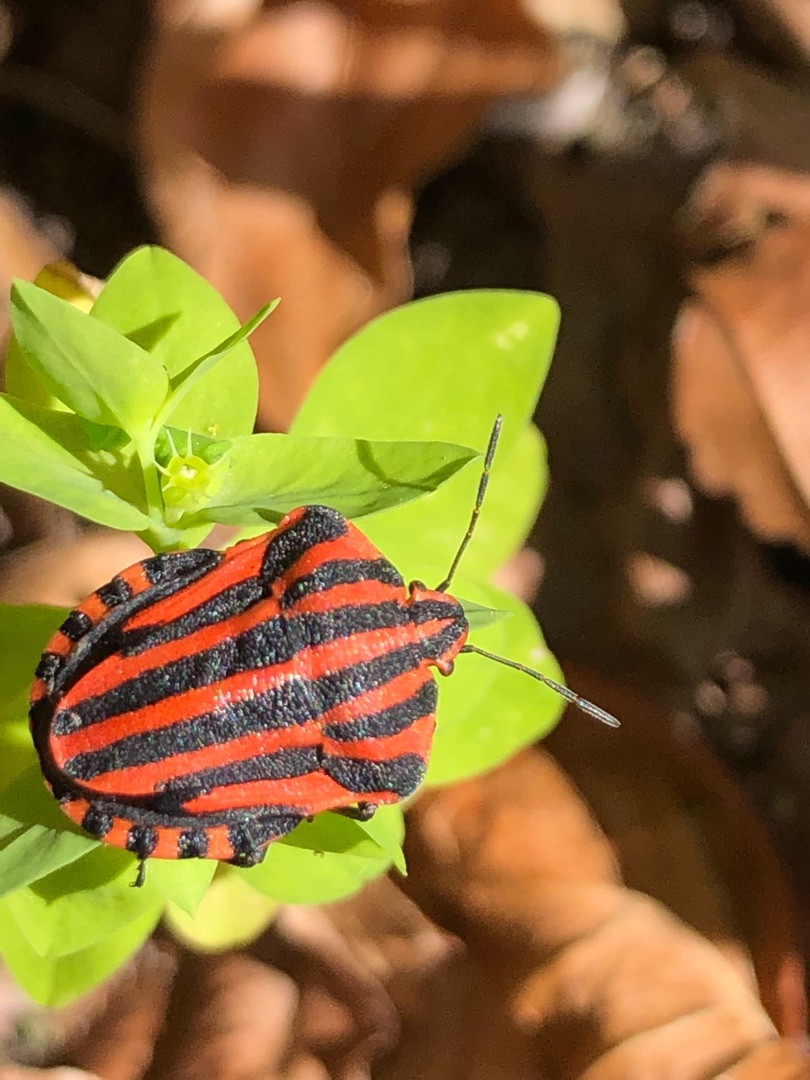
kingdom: Animalia
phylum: Arthropoda
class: Insecta
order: Hemiptera
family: Pentatomidae
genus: Graphosoma
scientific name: Graphosoma italicum
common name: Stribetæge
